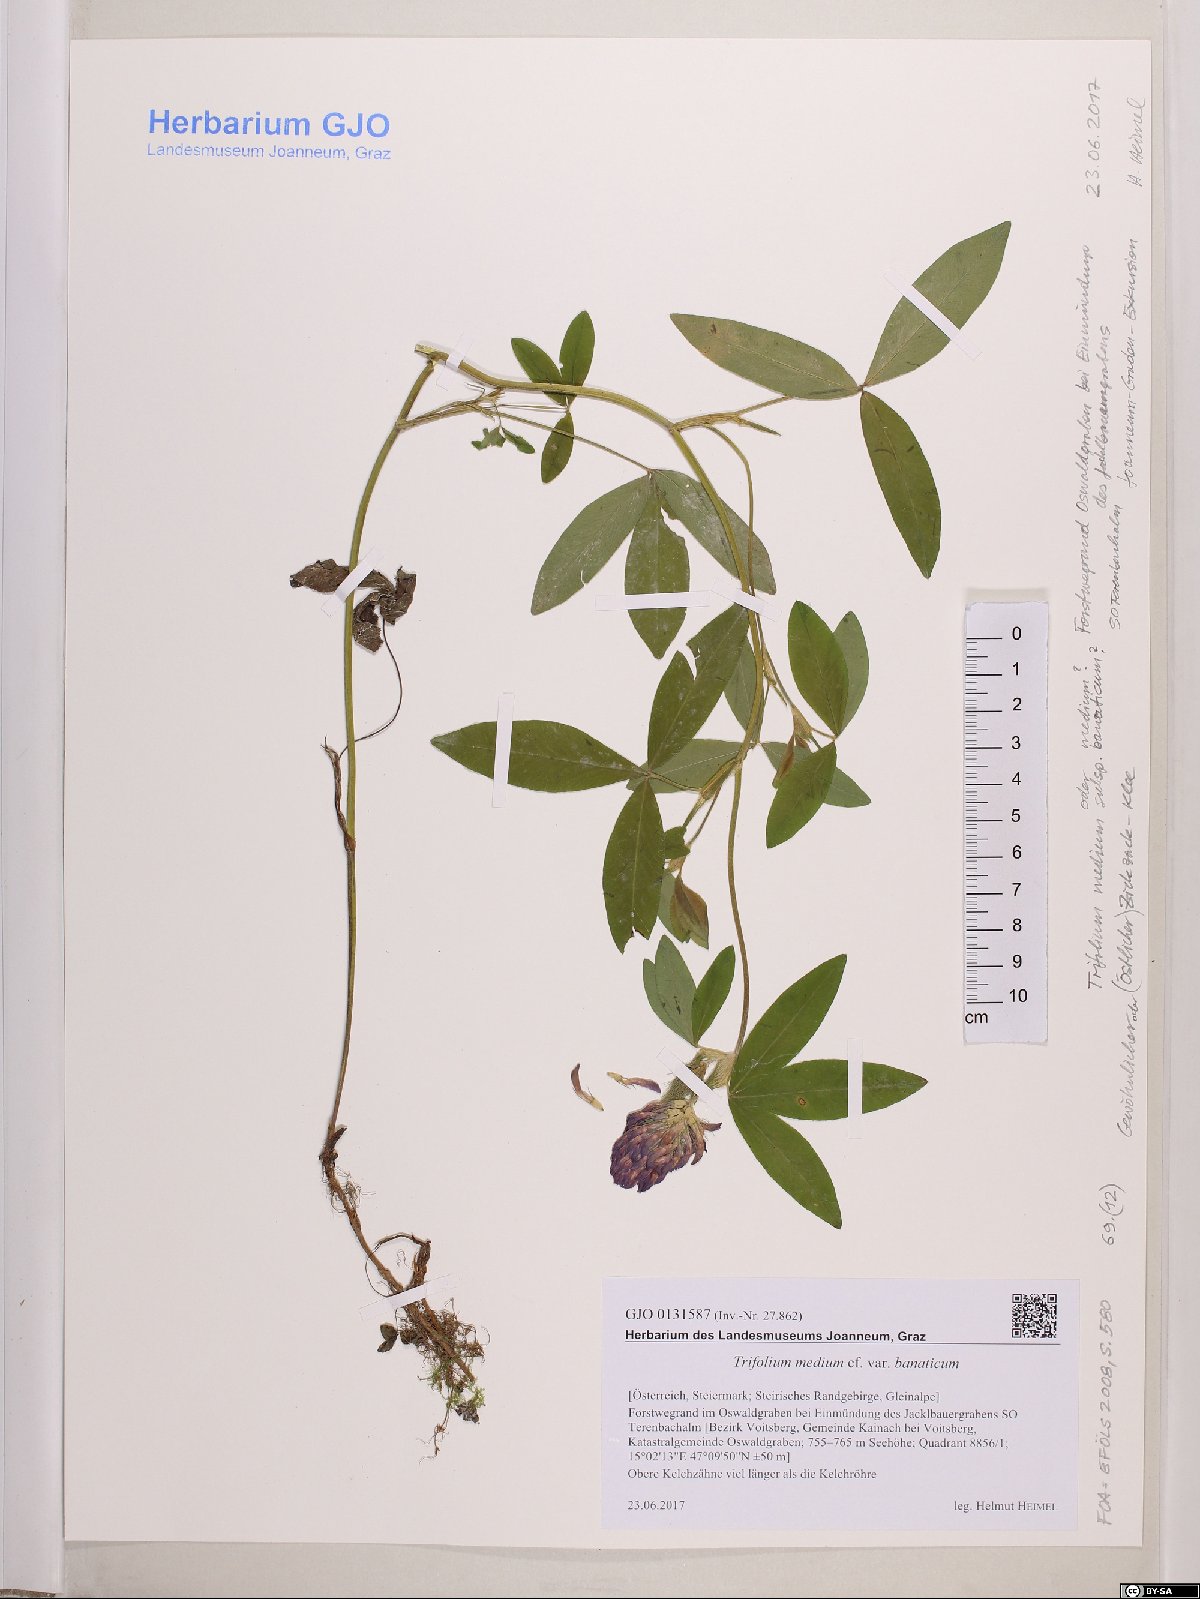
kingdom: Plantae
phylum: Tracheophyta
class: Magnoliopsida
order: Fabales
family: Fabaceae
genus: Trifolium
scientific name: Trifolium sarosiense
